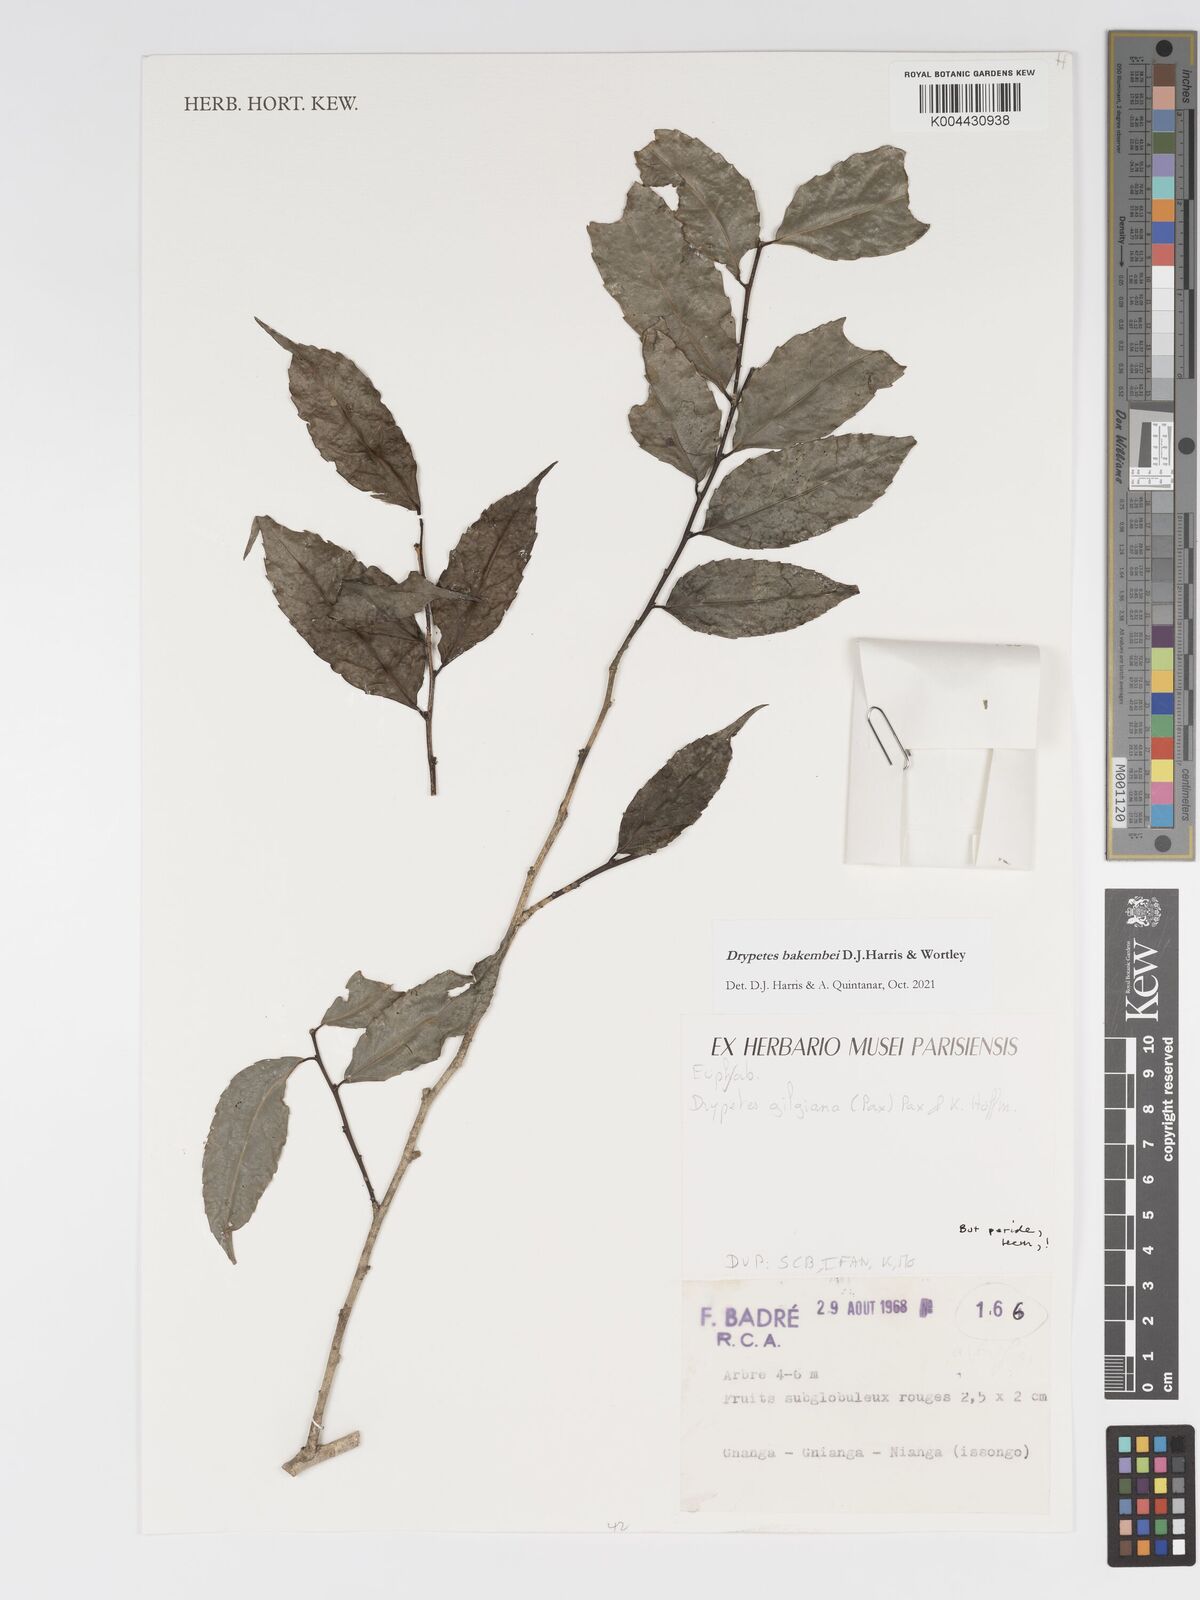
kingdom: Plantae
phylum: Tracheophyta
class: Magnoliopsida
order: Malpighiales
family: Putranjivaceae
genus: Drypetes
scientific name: Drypetes bakembei
